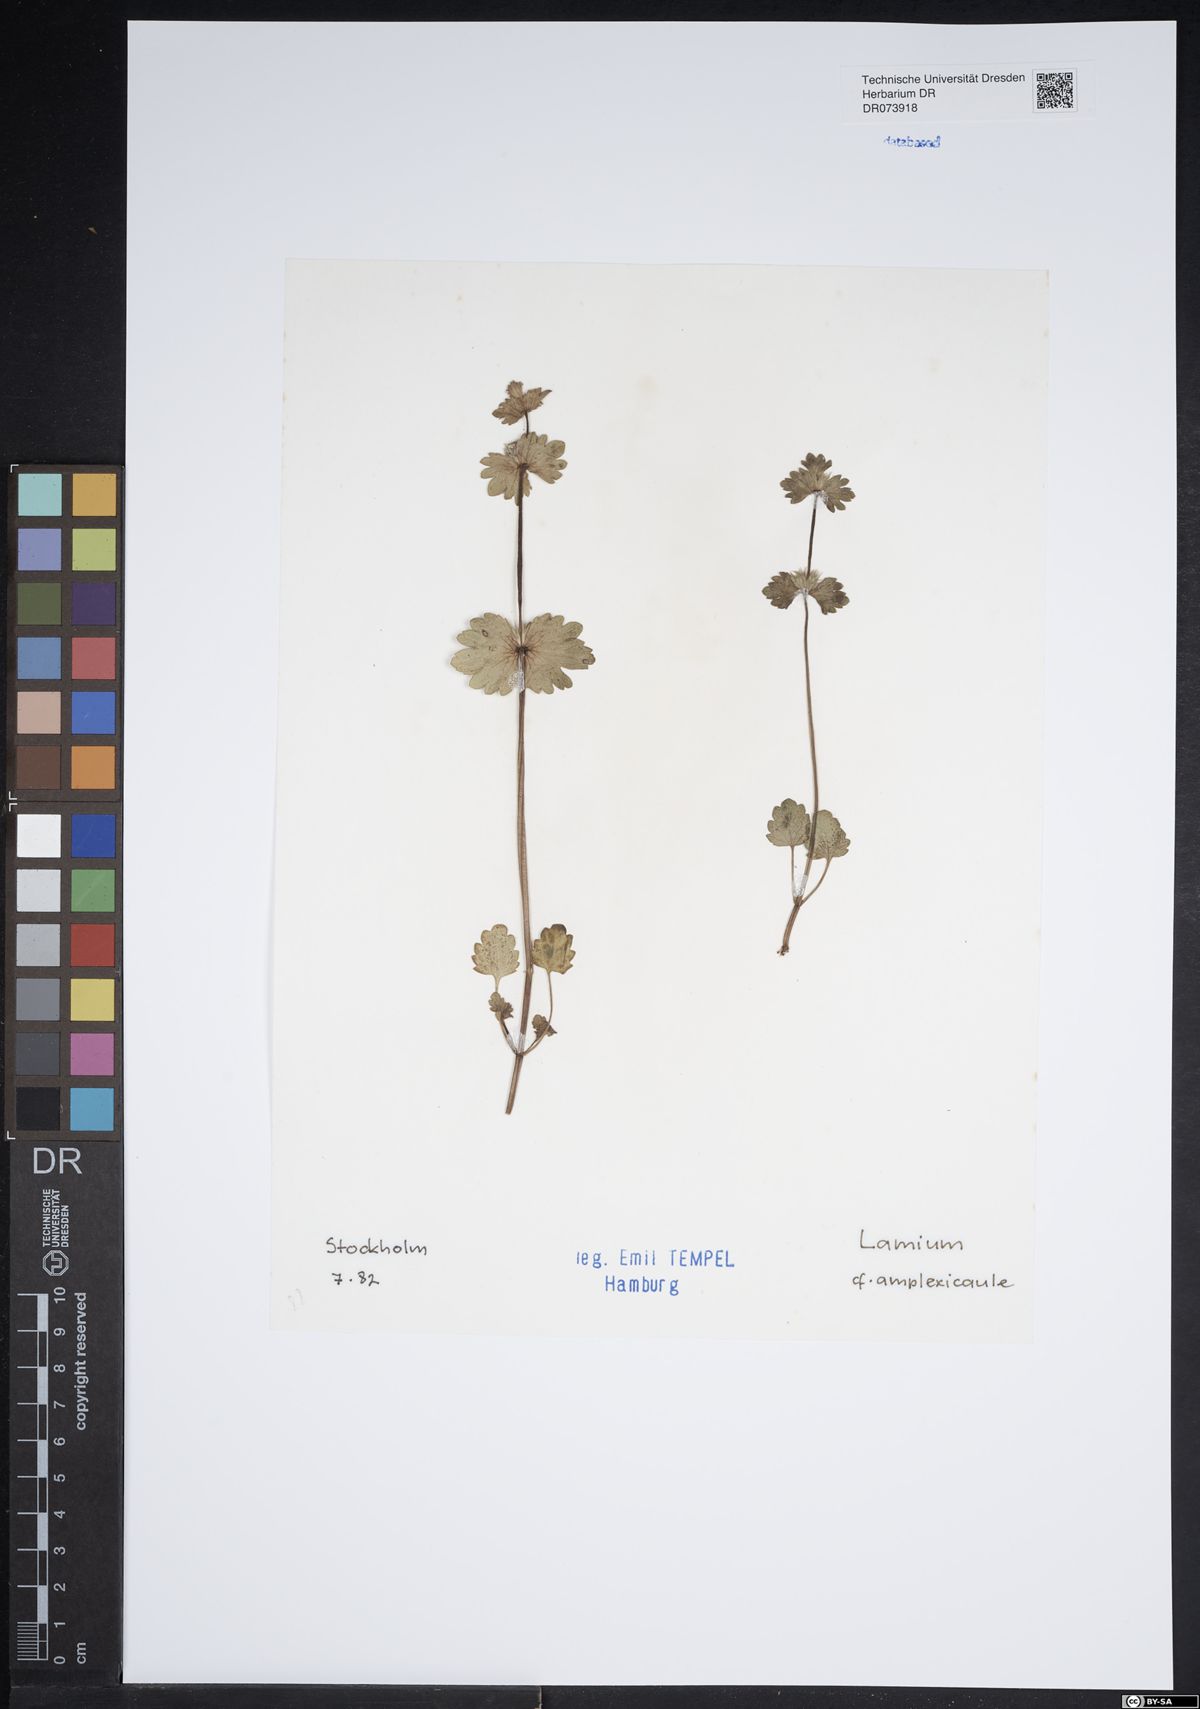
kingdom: Plantae
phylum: Tracheophyta
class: Magnoliopsida
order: Lamiales
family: Lamiaceae
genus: Lamium
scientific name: Lamium amplexicaule
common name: Henbit dead-nettle
